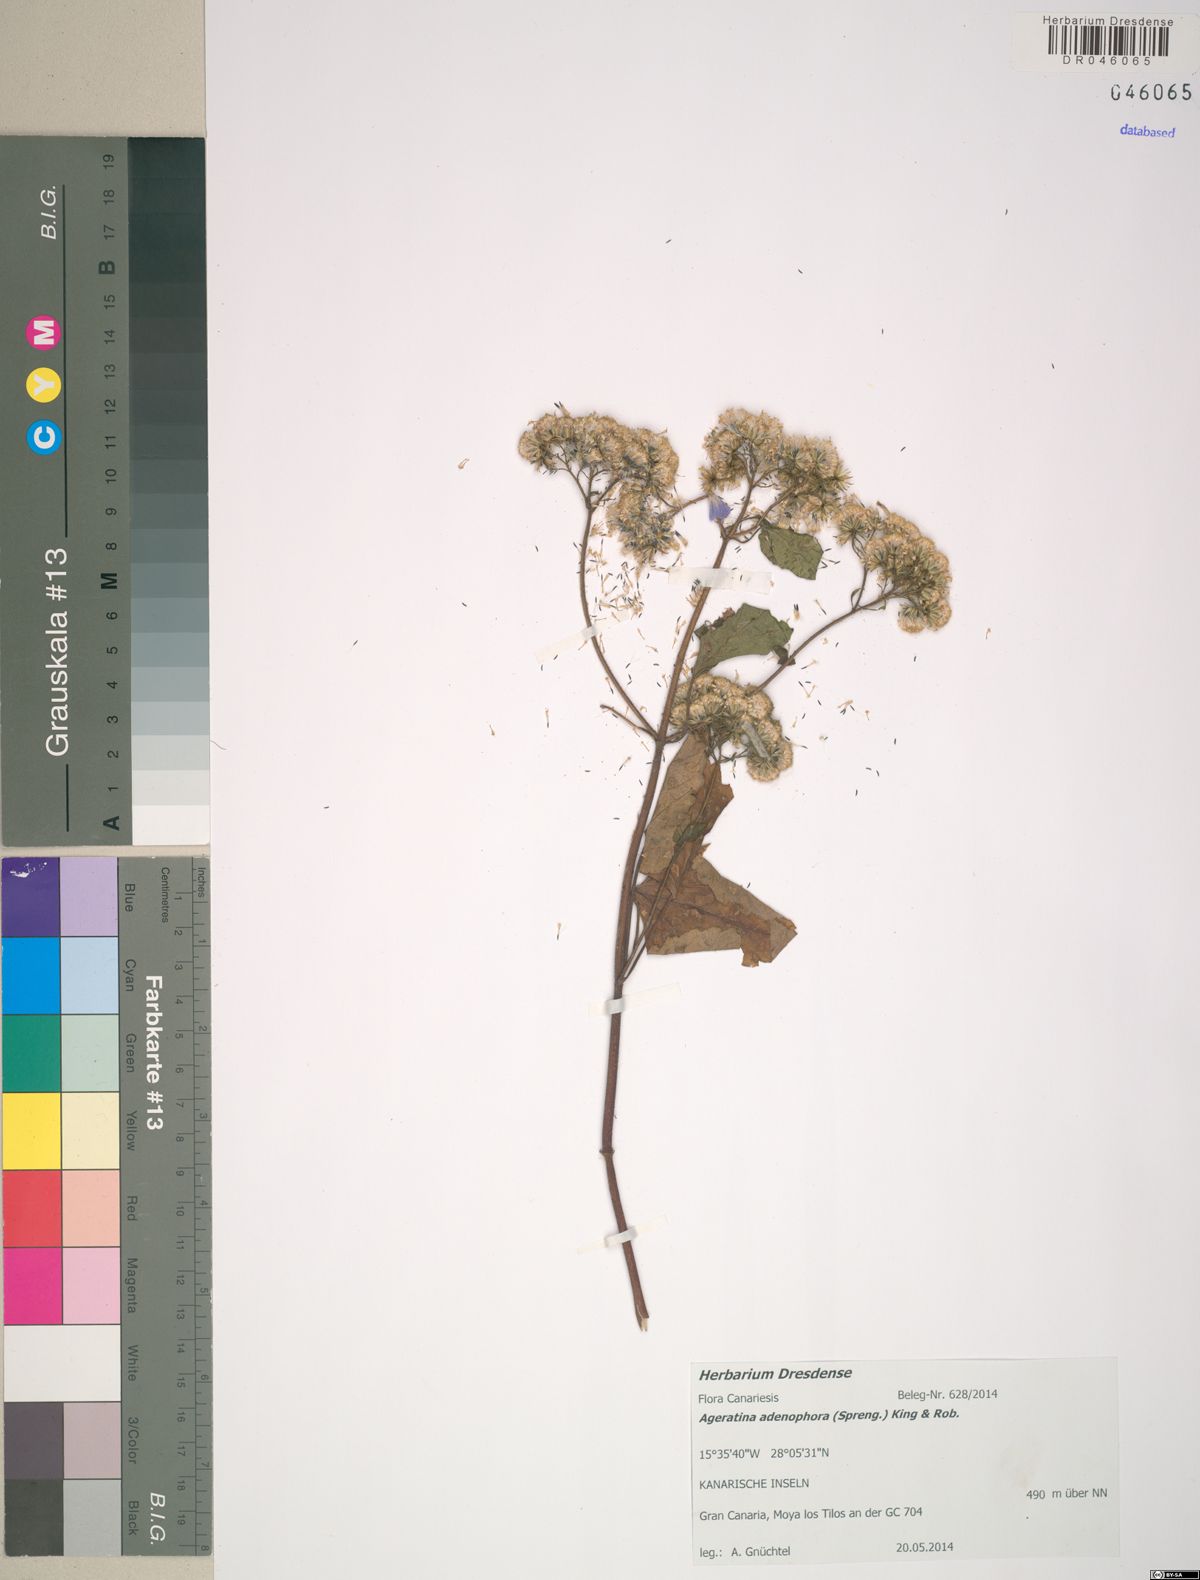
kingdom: Plantae
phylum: Tracheophyta
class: Magnoliopsida
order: Asterales
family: Asteraceae
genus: Ageratina
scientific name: Ageratina adenophora
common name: Sticky snakeroot
